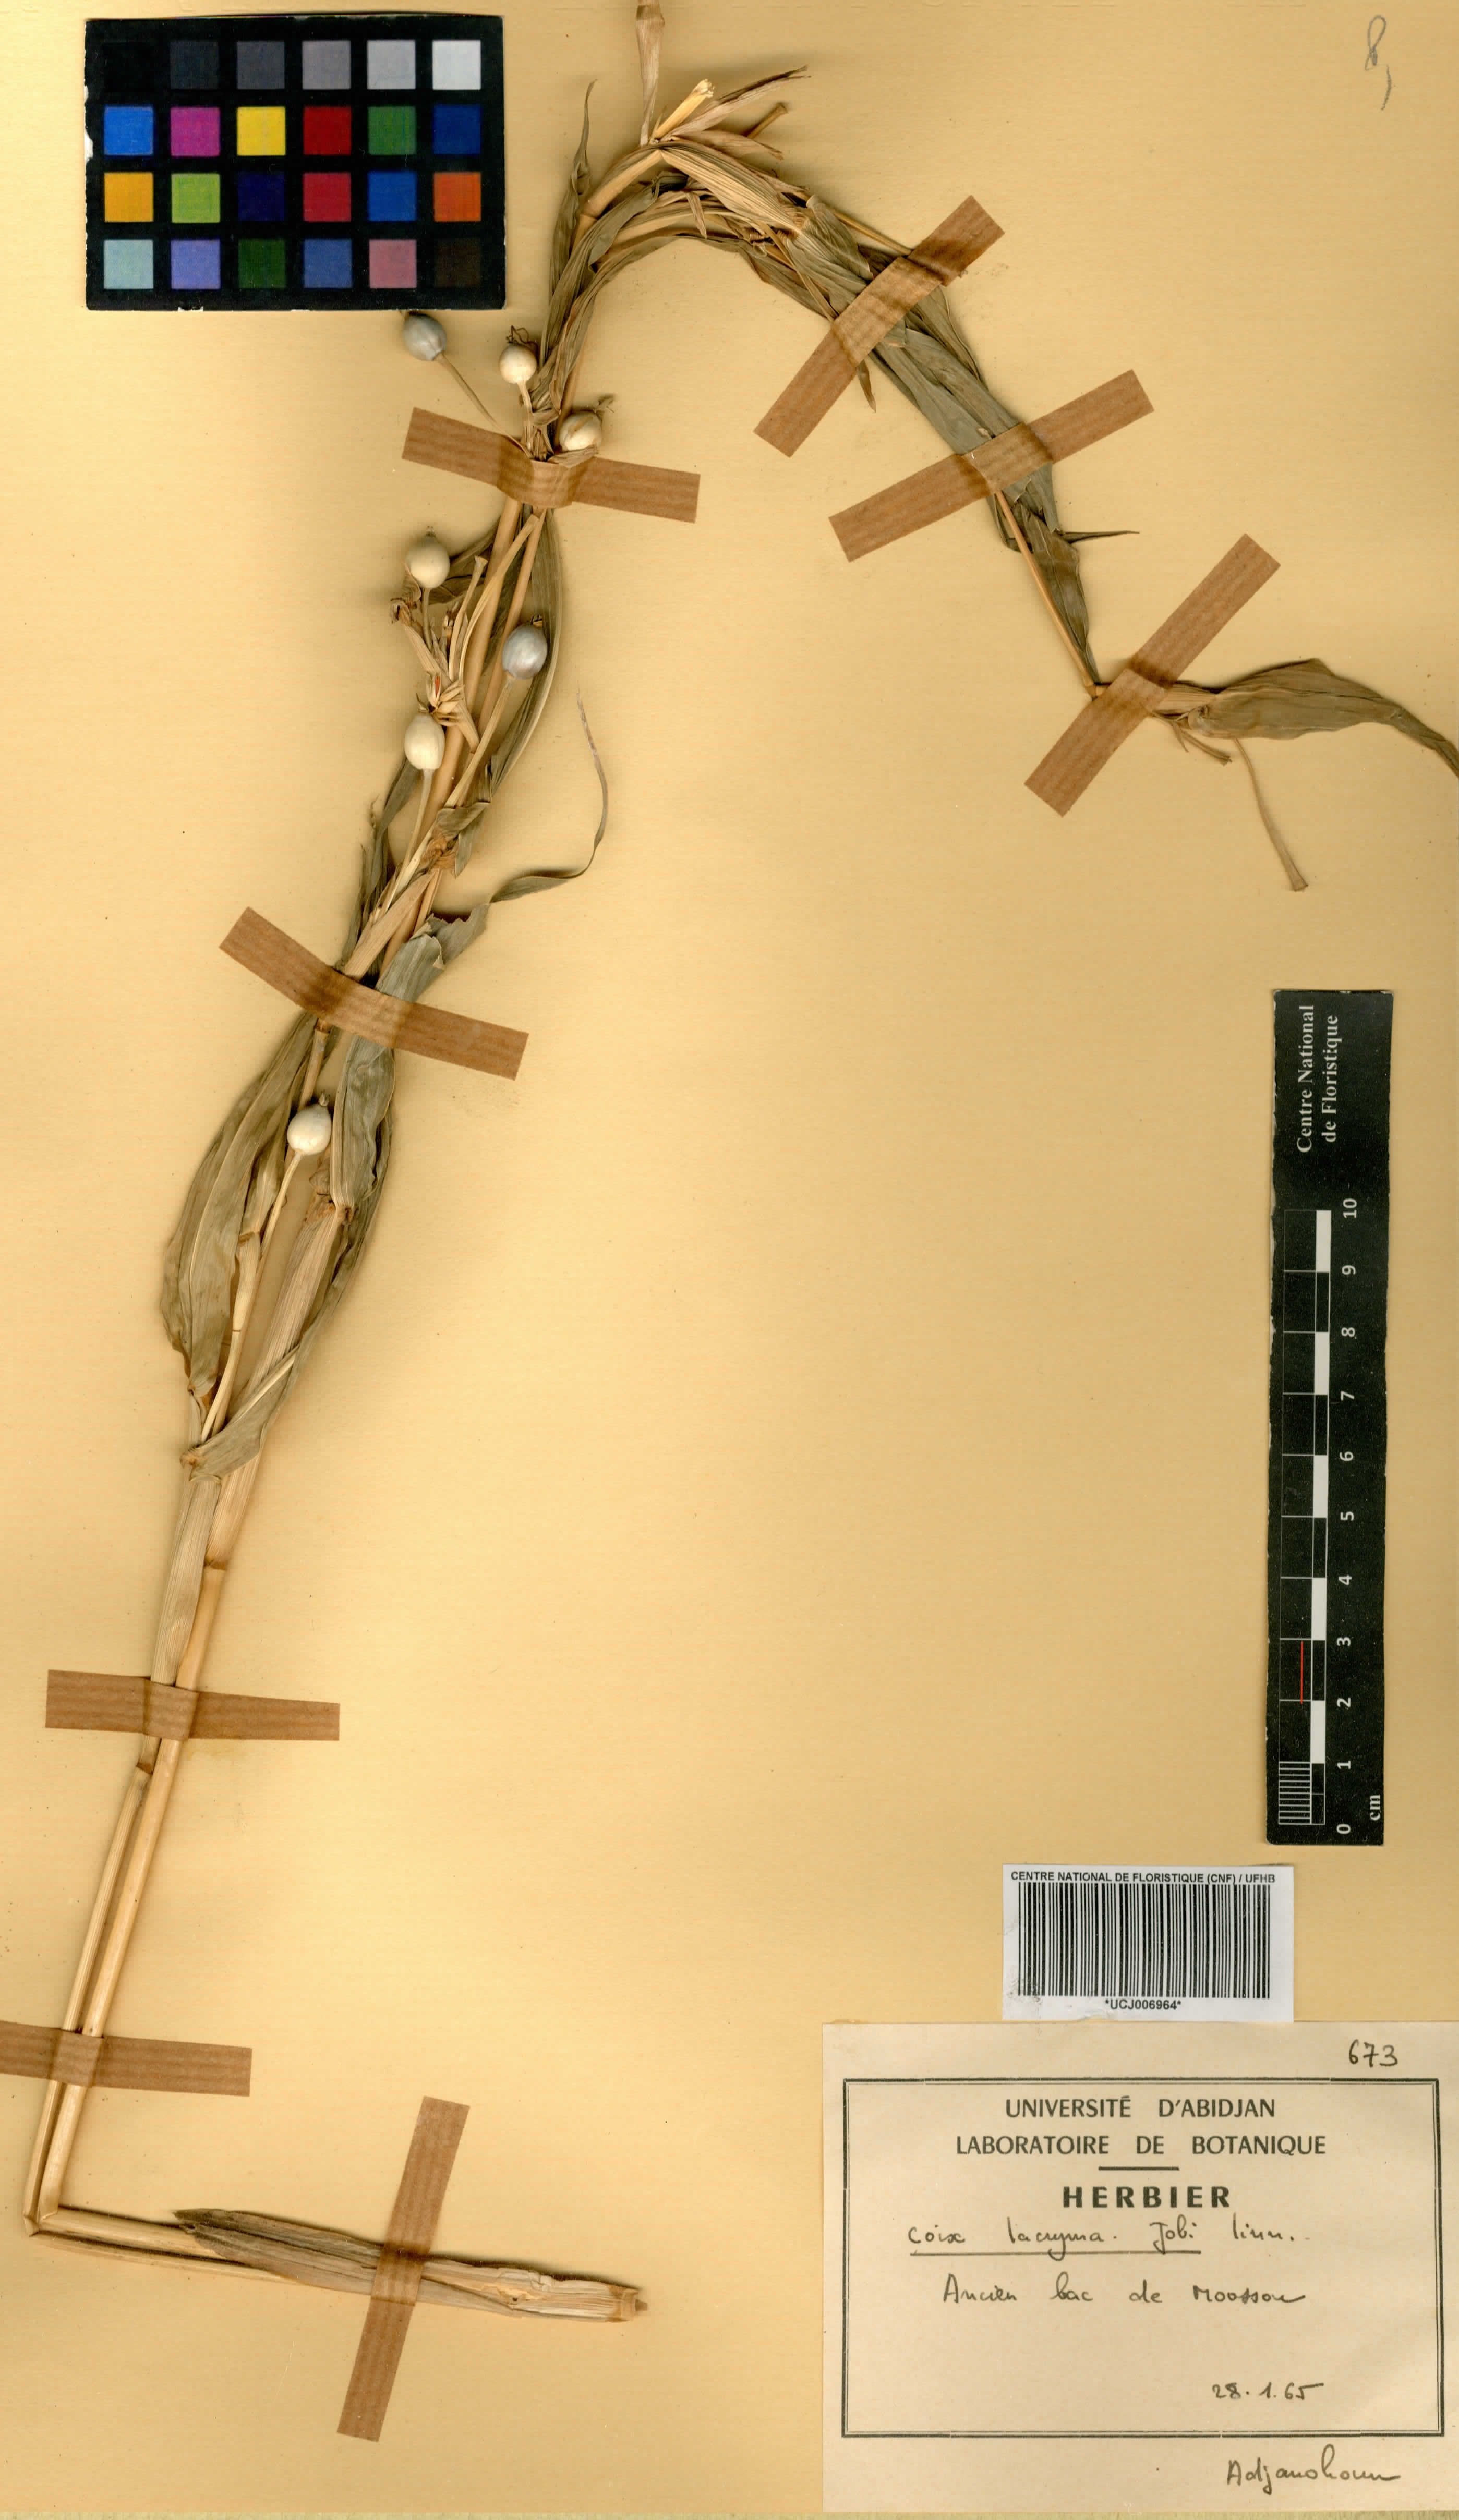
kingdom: Plantae
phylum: Tracheophyta
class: Liliopsida
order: Poales
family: Poaceae
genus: Coix
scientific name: Coix lacryma-jobi
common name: Job's tears
